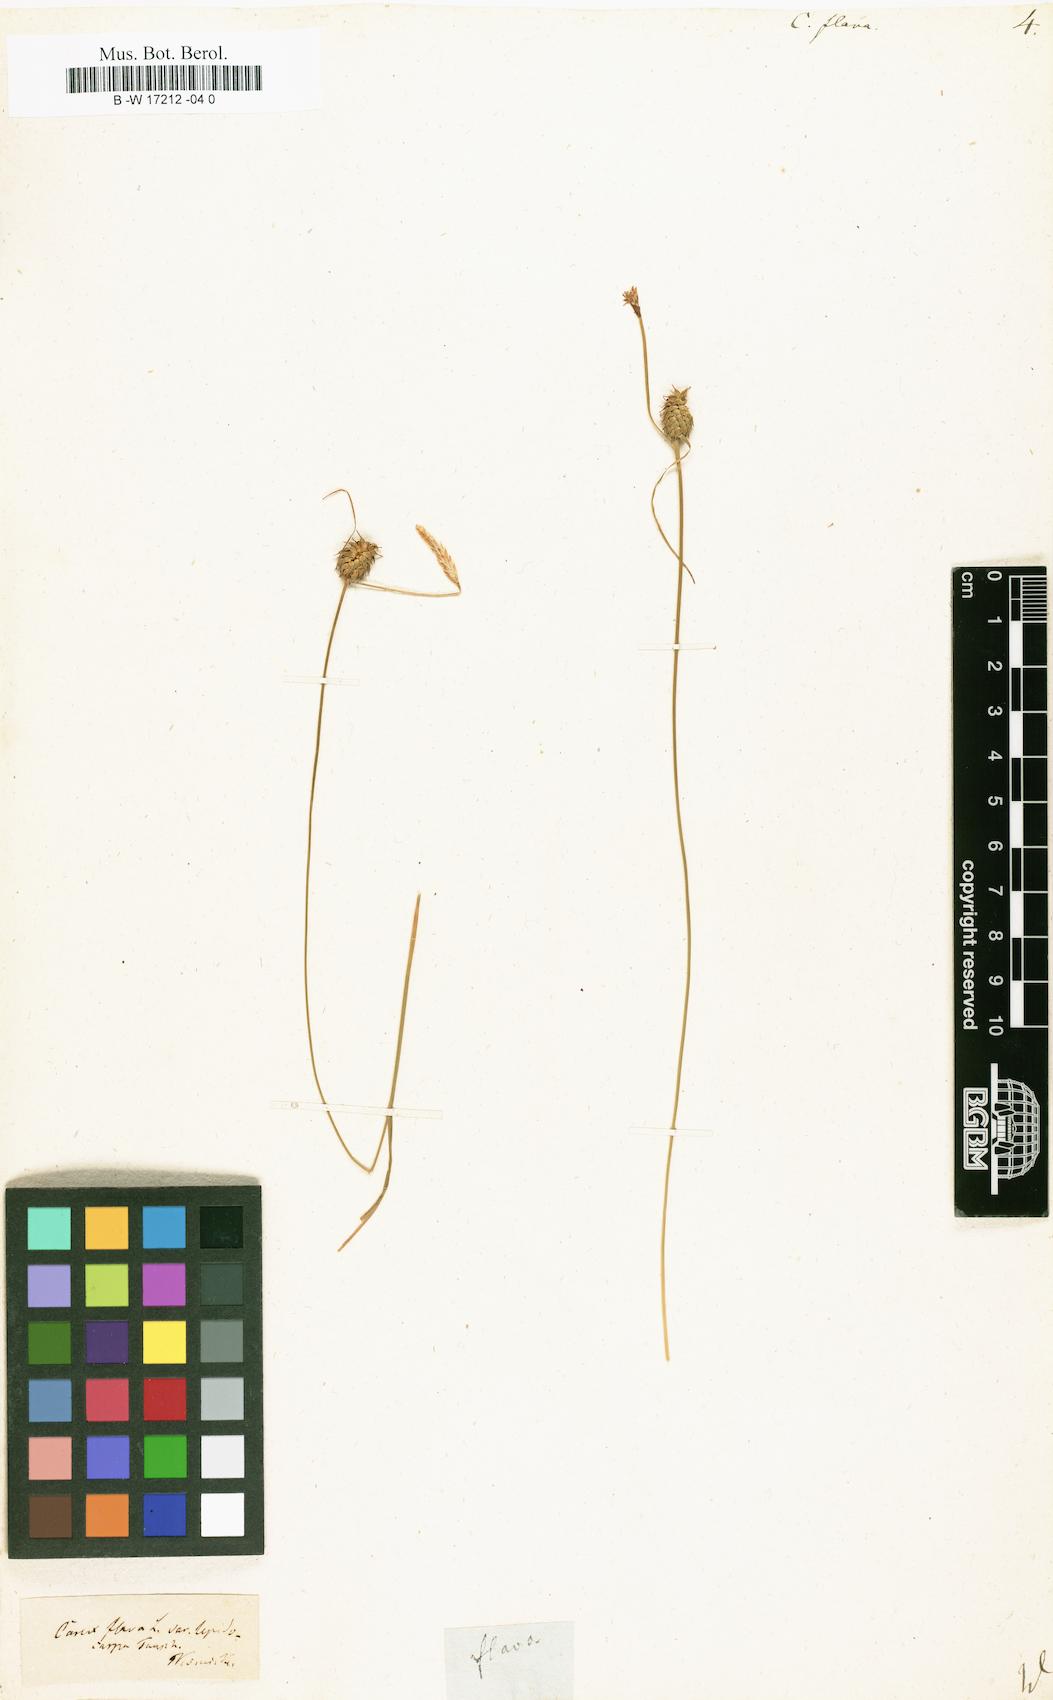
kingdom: Plantae
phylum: Tracheophyta
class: Liliopsida
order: Poales
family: Cyperaceae
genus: Carex
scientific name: Carex flava
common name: Large yellow-sedge
